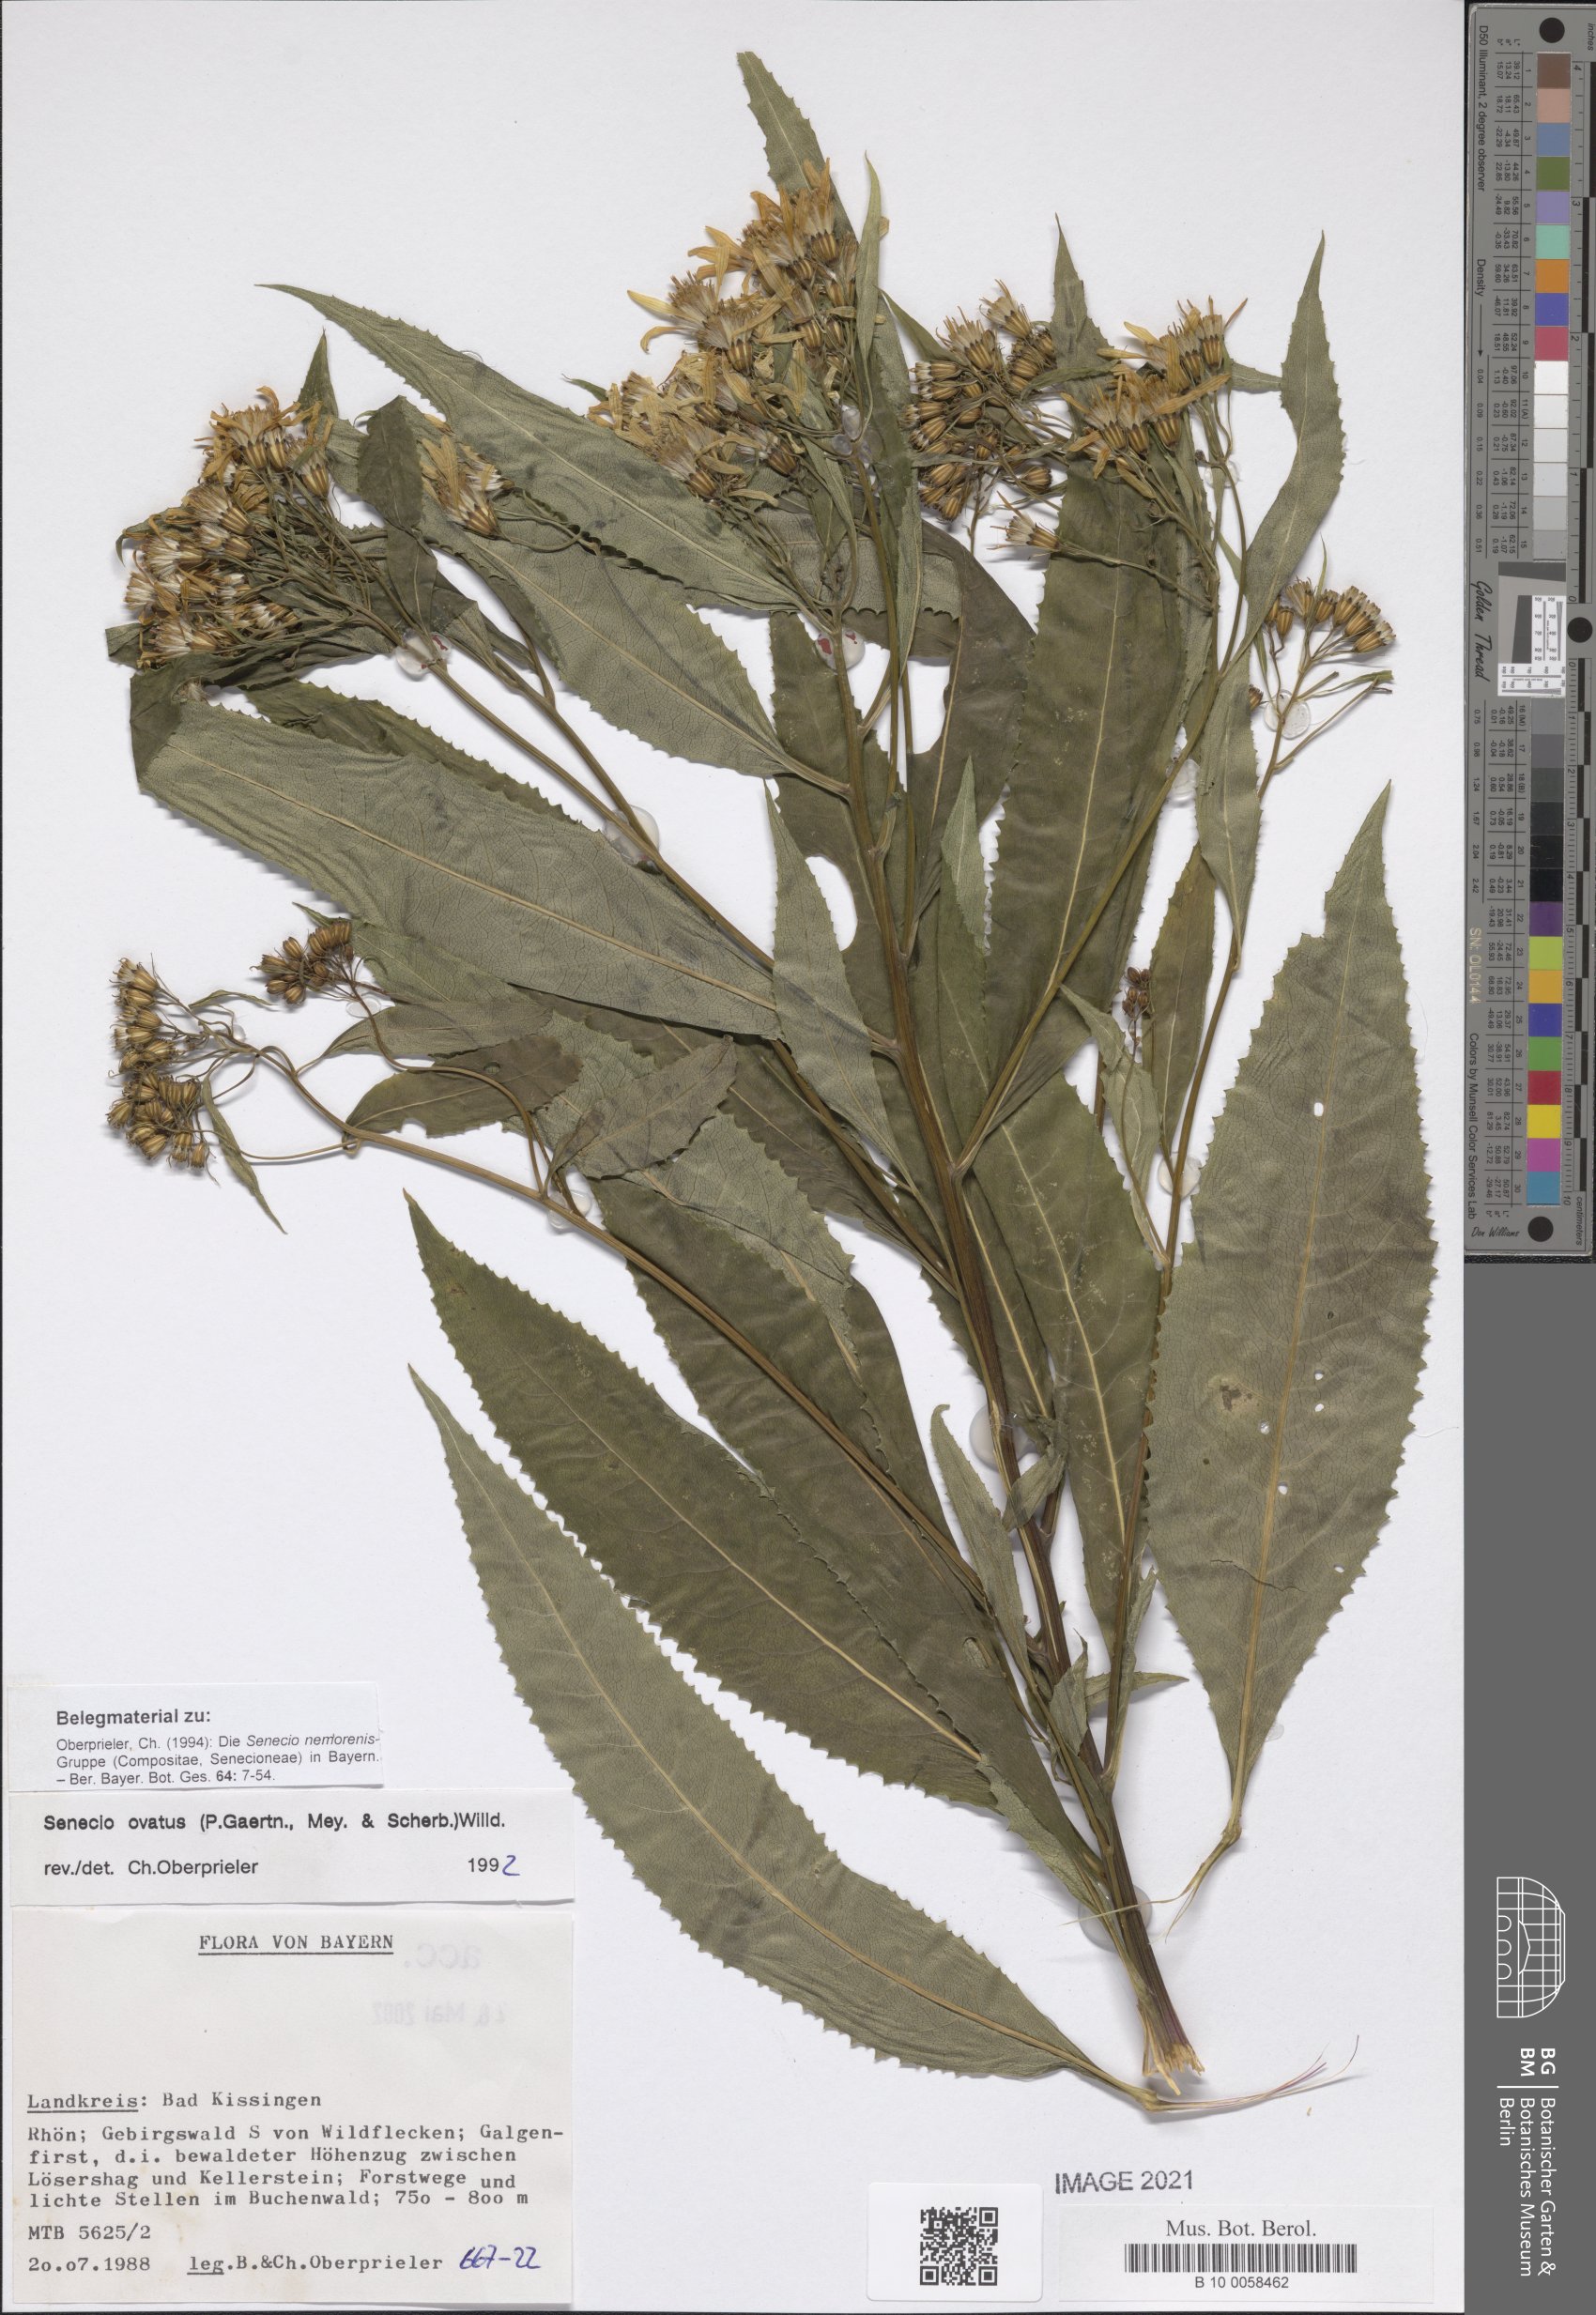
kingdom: Plantae
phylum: Tracheophyta
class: Magnoliopsida
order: Asterales
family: Asteraceae
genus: Senecio
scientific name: Senecio ovatus
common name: Wood ragwort
